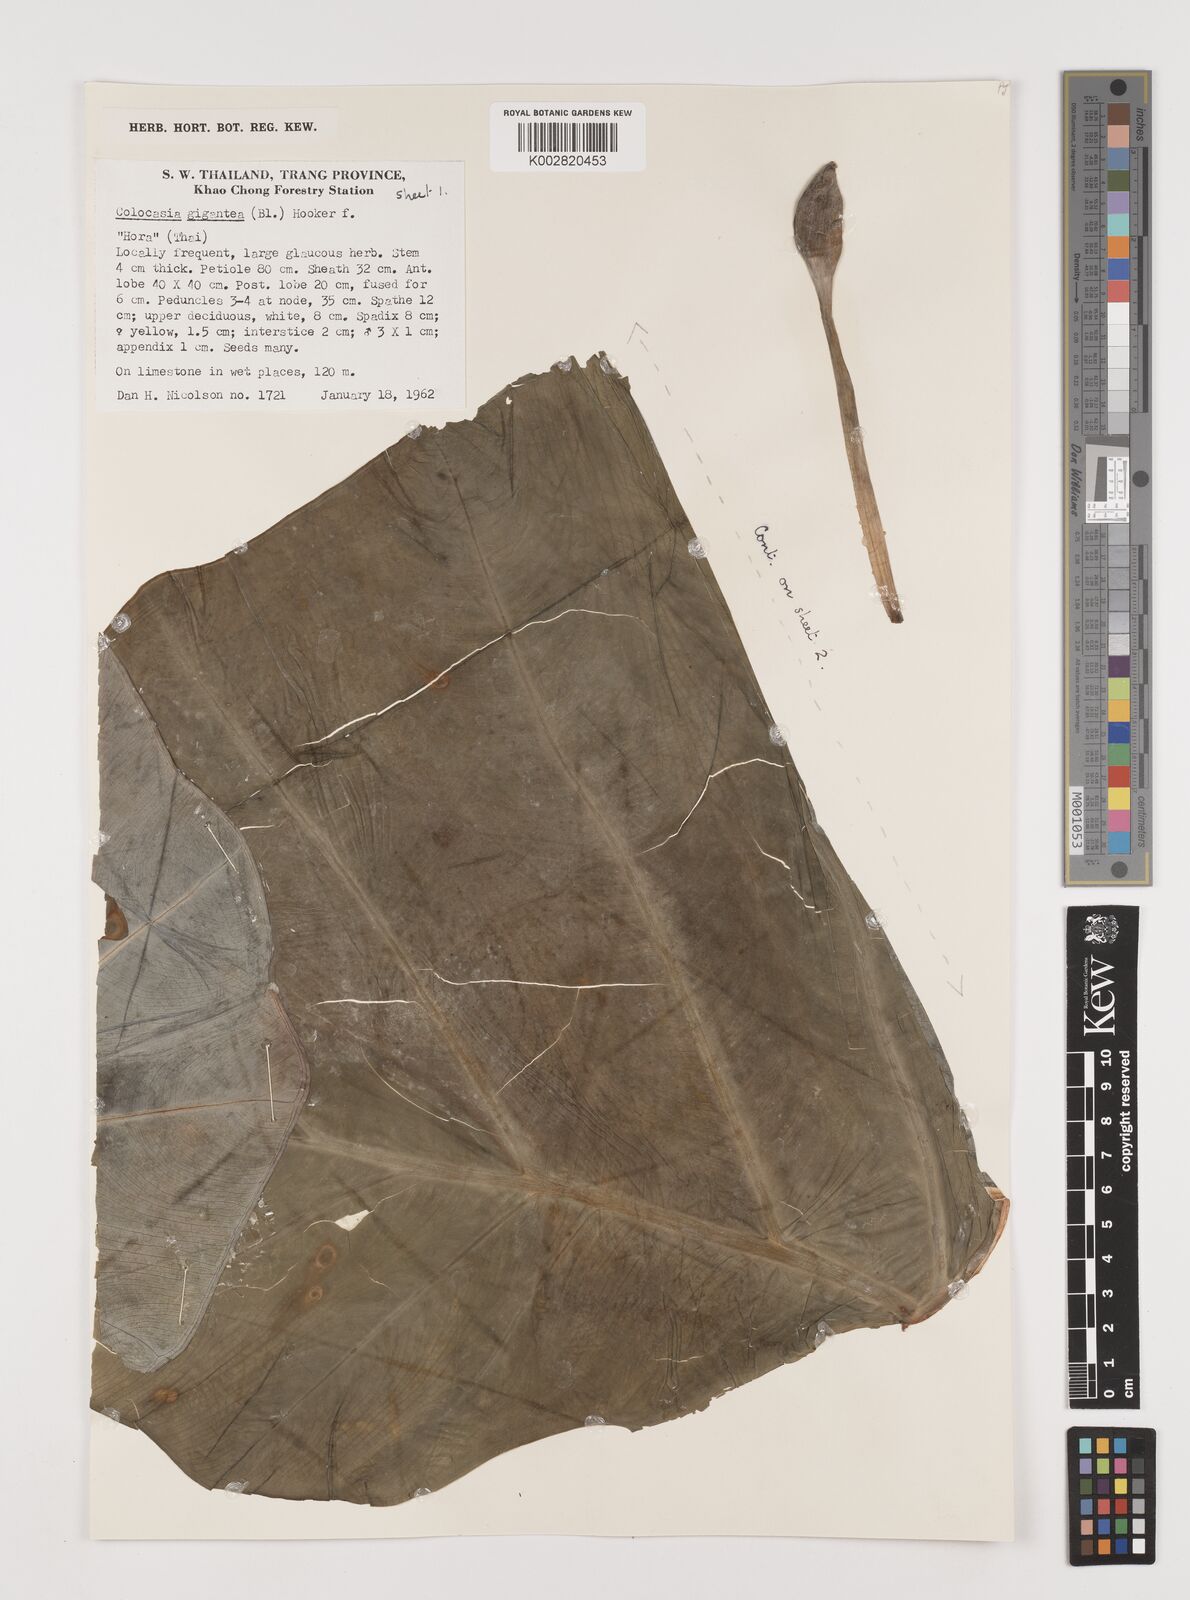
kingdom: Plantae
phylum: Tracheophyta
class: Liliopsida
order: Alismatales
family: Araceae
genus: Leucocasia
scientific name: Leucocasia gigantea
